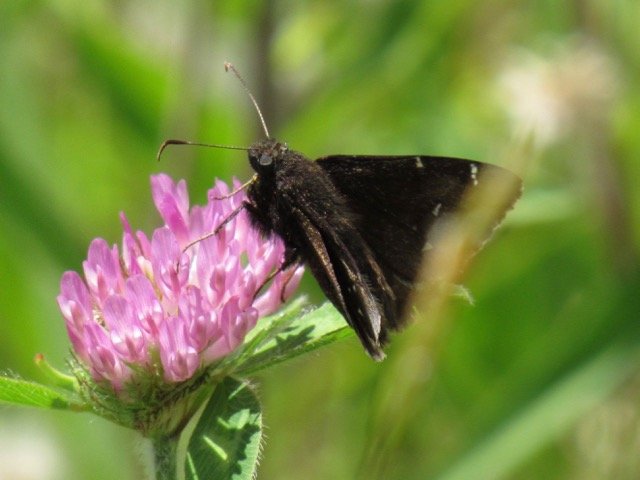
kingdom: Animalia
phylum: Arthropoda
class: Insecta
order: Lepidoptera
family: Hesperiidae
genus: Autochton
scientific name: Autochton
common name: Northern Cloudywing
